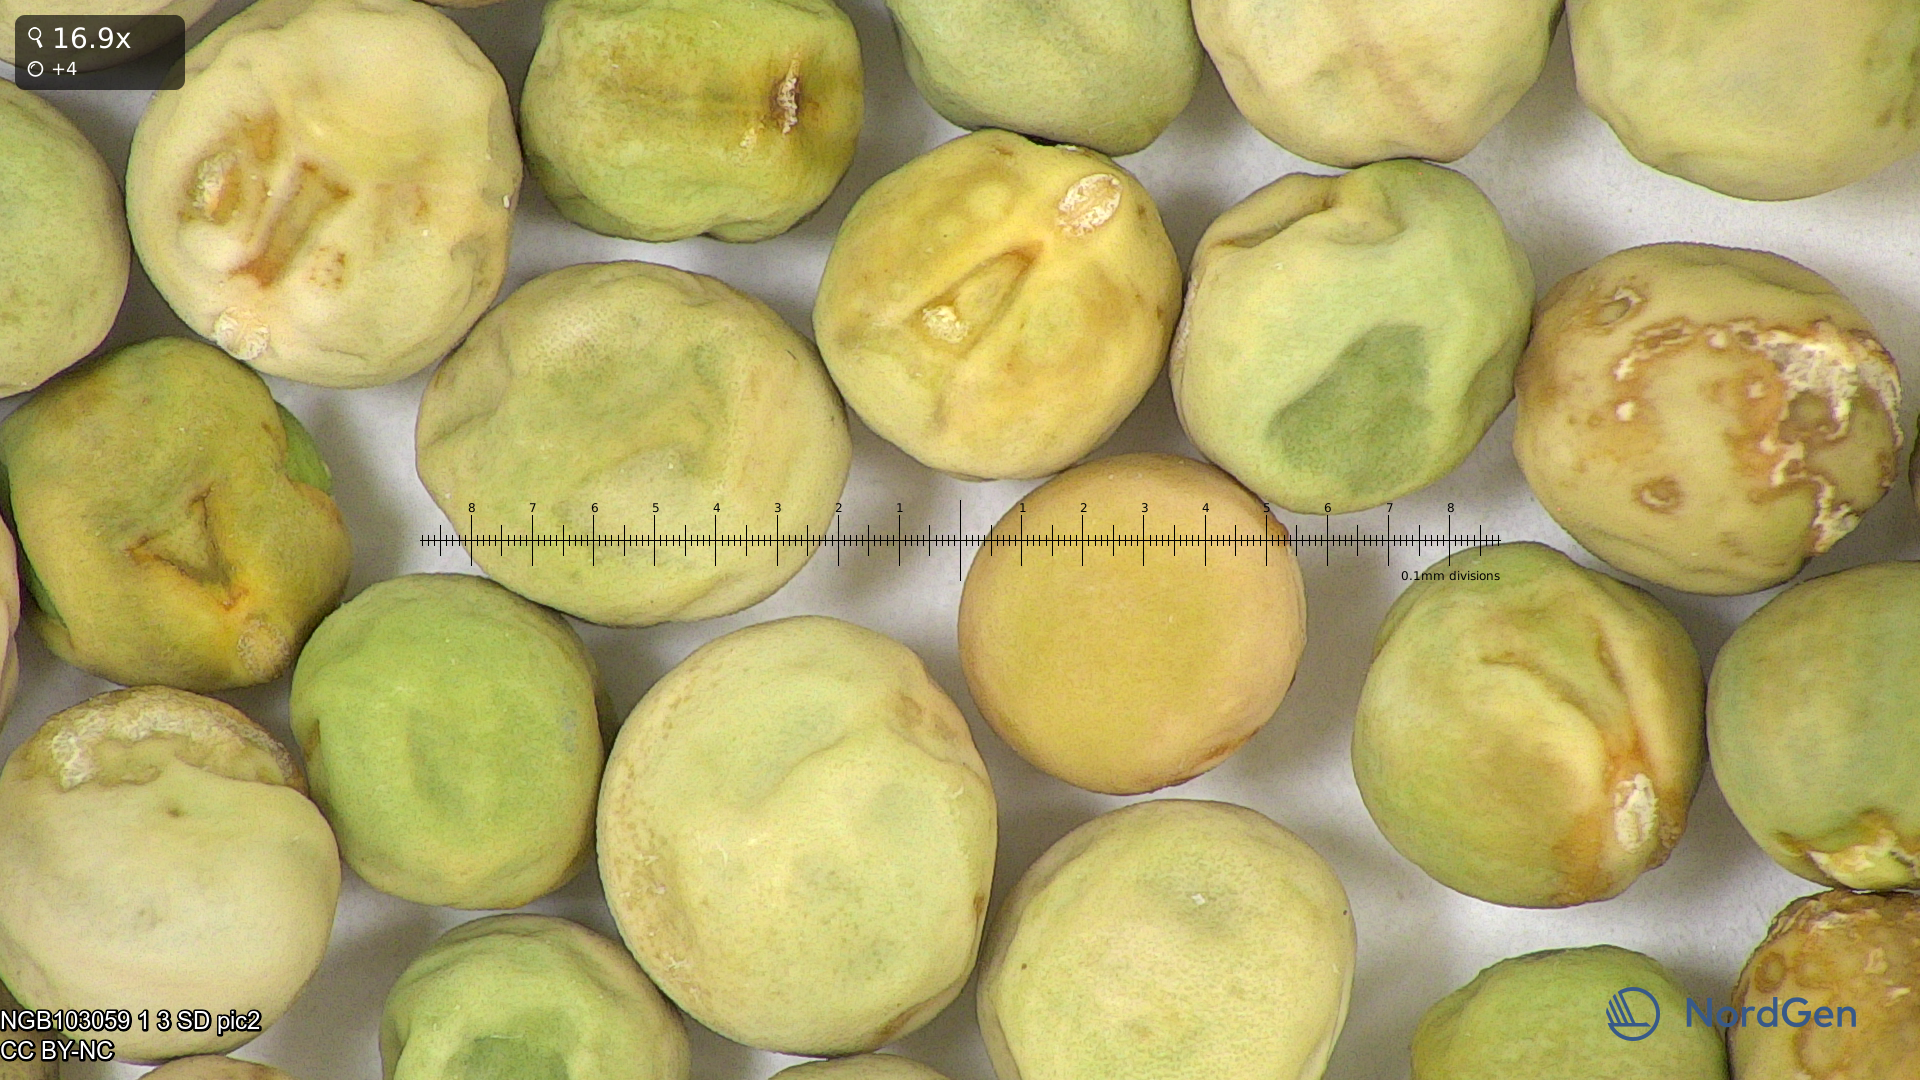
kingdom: Plantae
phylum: Tracheophyta
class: Magnoliopsida
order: Fabales
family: Fabaceae
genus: Lathyrus
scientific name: Lathyrus oleraceus
